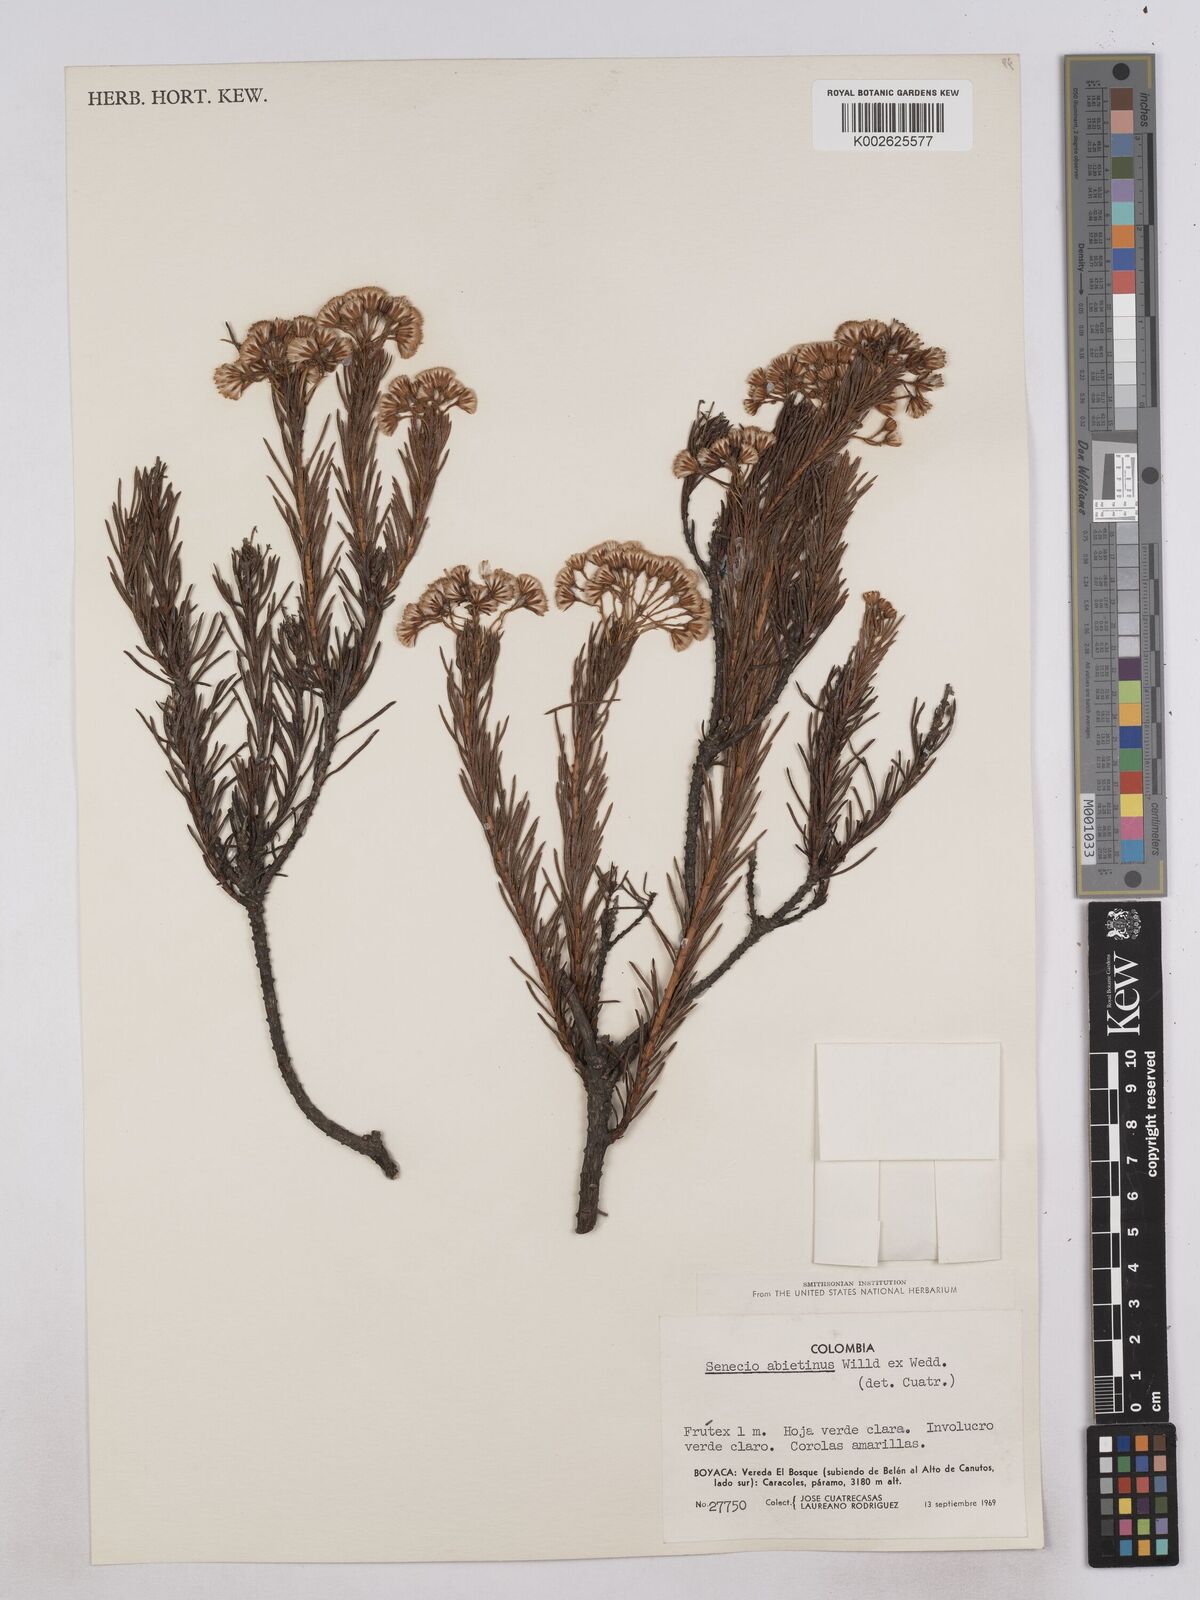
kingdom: Plantae
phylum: Tracheophyta
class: Magnoliopsida
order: Asterales
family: Asteraceae
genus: Monticalia
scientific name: Monticalia abietina
